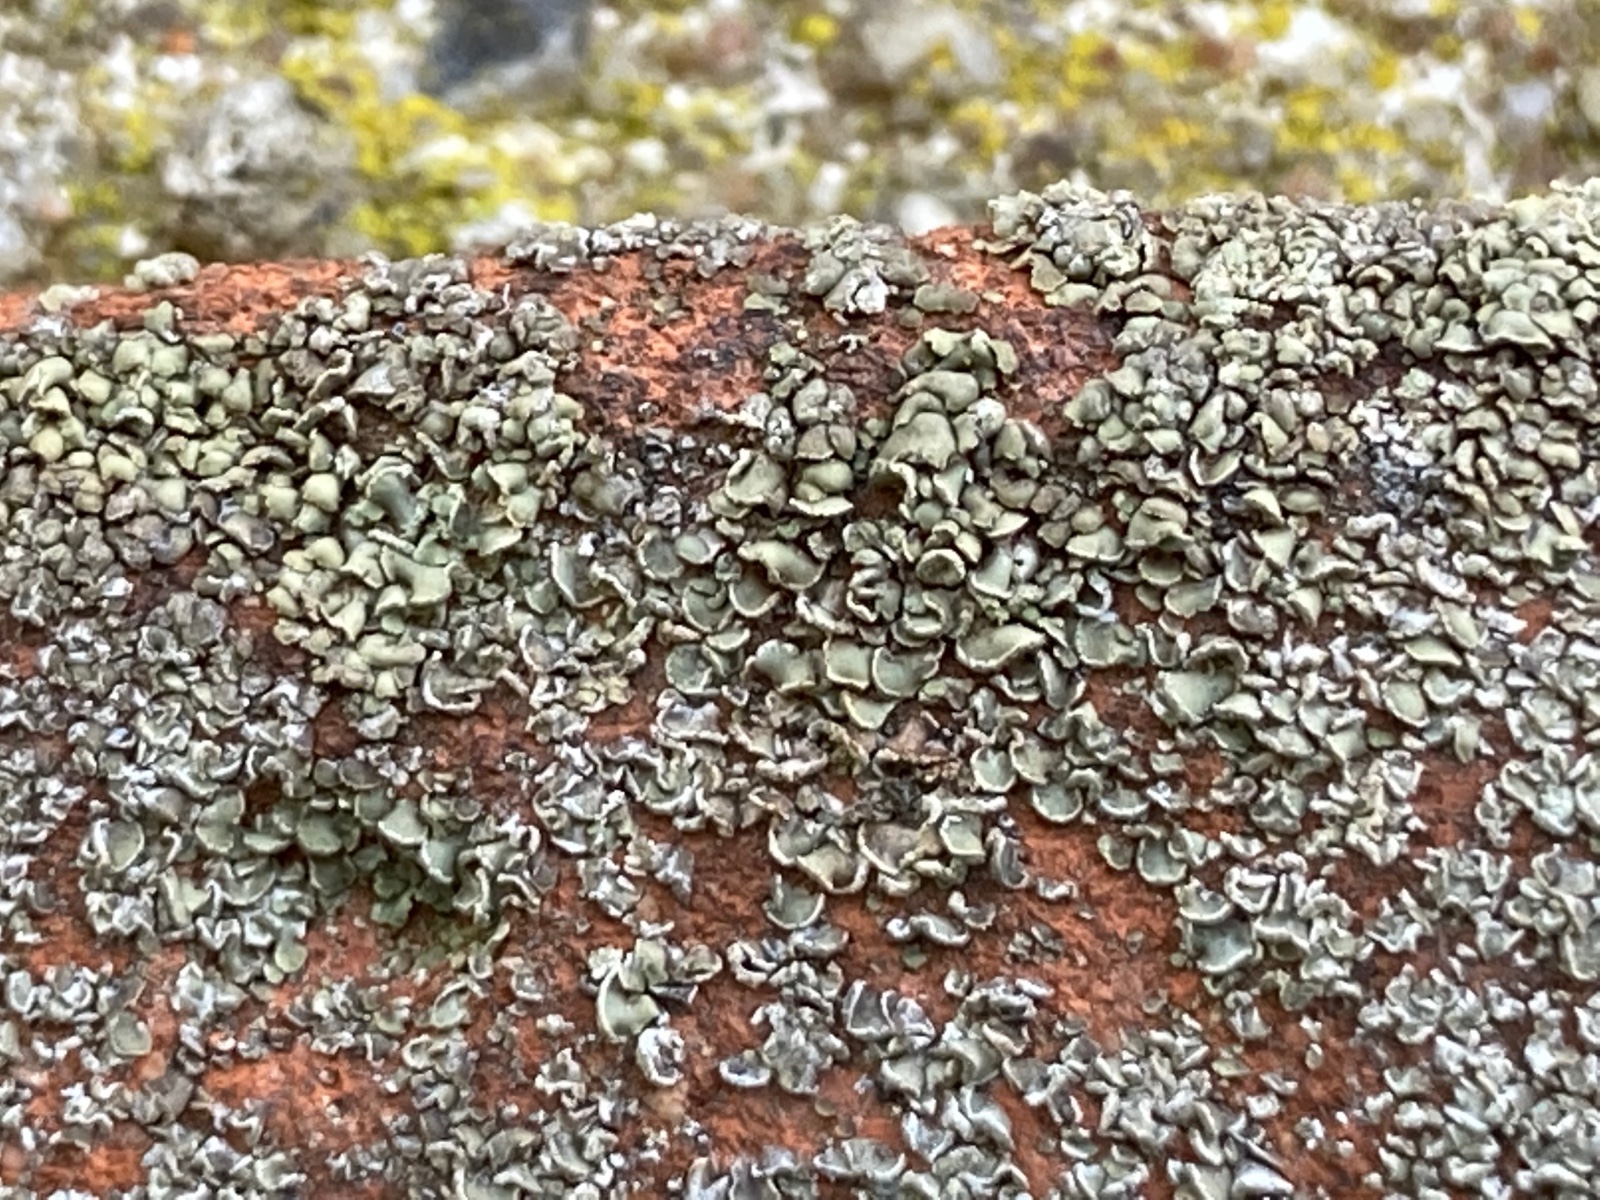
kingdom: Fungi
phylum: Ascomycota
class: Lecanoromycetes
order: Umbilicariales
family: Ophioparmaceae
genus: Hypocenomyce
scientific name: Hypocenomyce scalaris
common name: småskællet muslinglav
